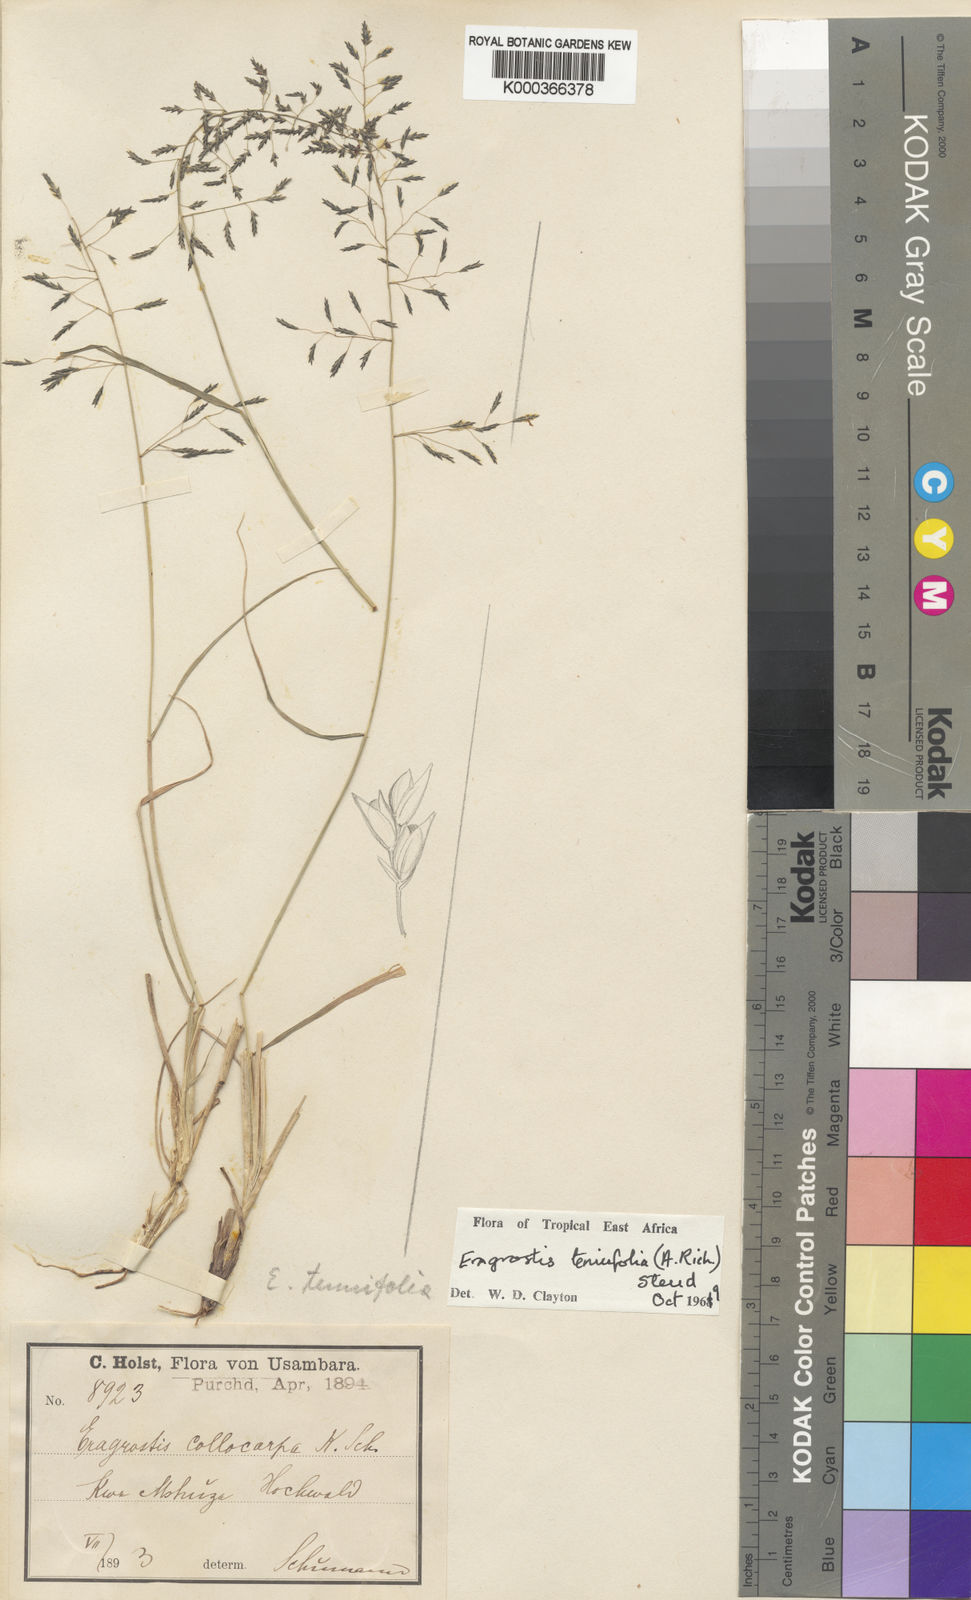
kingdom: Plantae
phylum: Tracheophyta
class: Liliopsida
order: Poales
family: Poaceae
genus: Eragrostis
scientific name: Eragrostis tenuifolia
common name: Elastic grass
